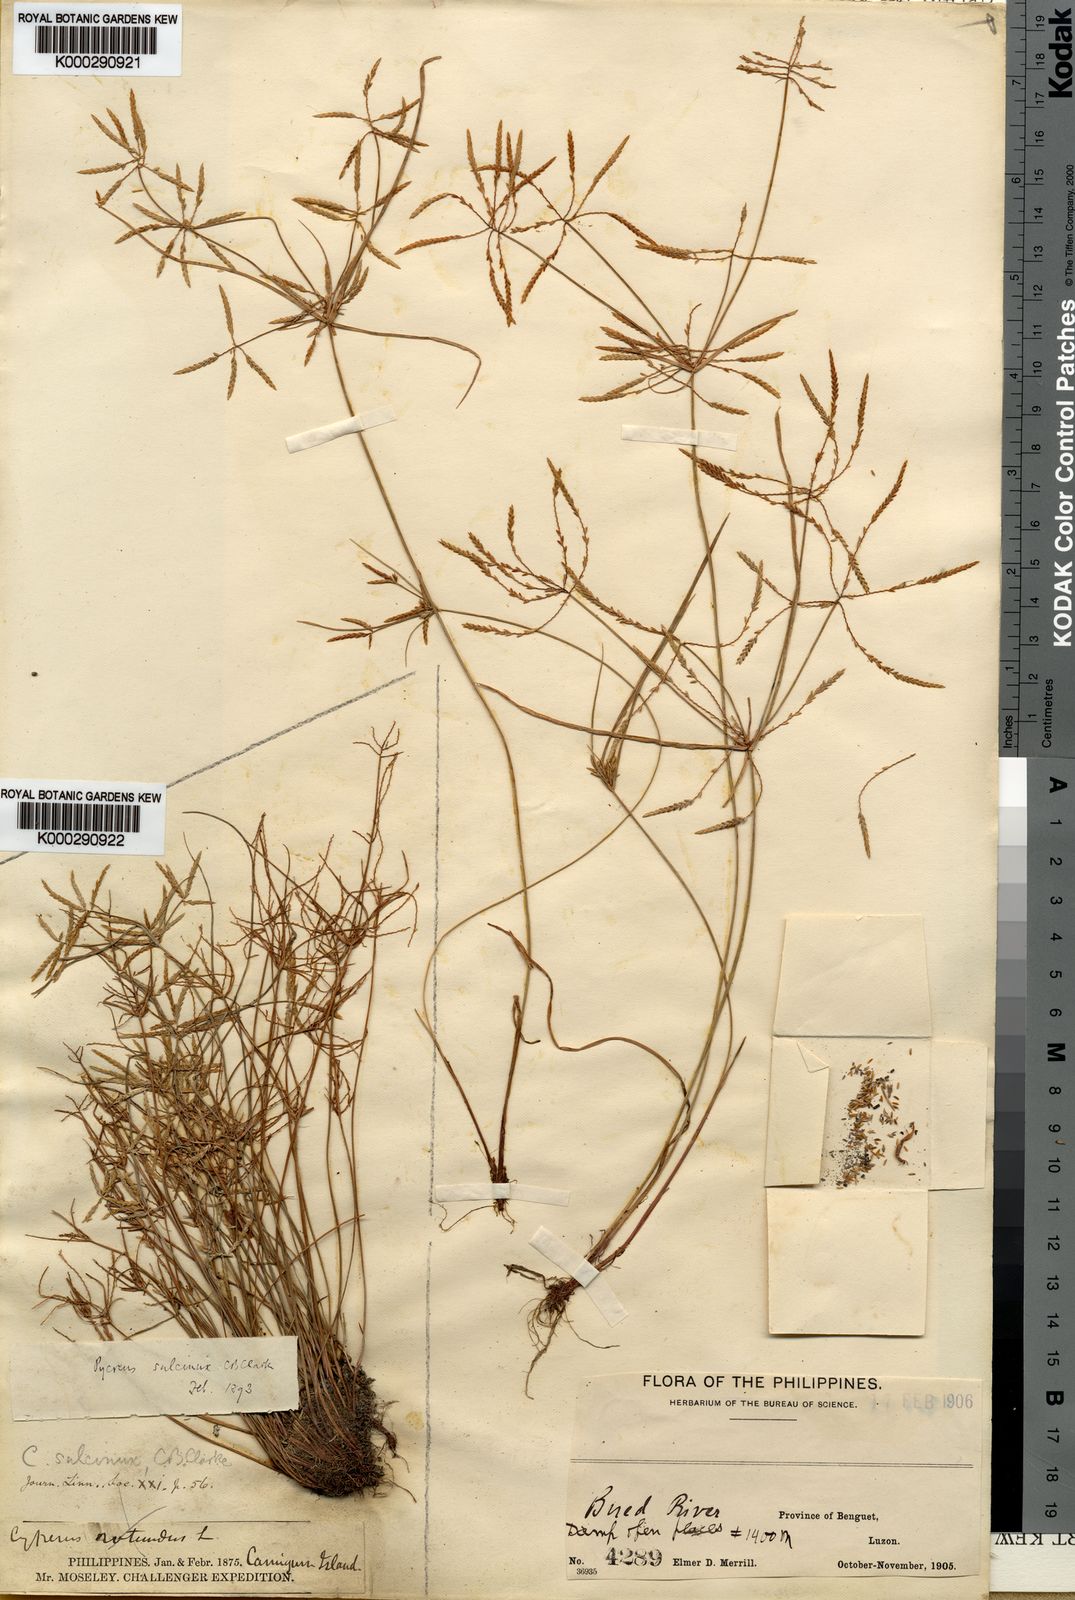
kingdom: Plantae
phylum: Tracheophyta
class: Liliopsida
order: Poales
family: Cyperaceae
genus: Cyperus
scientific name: Cyperus sulcinux
